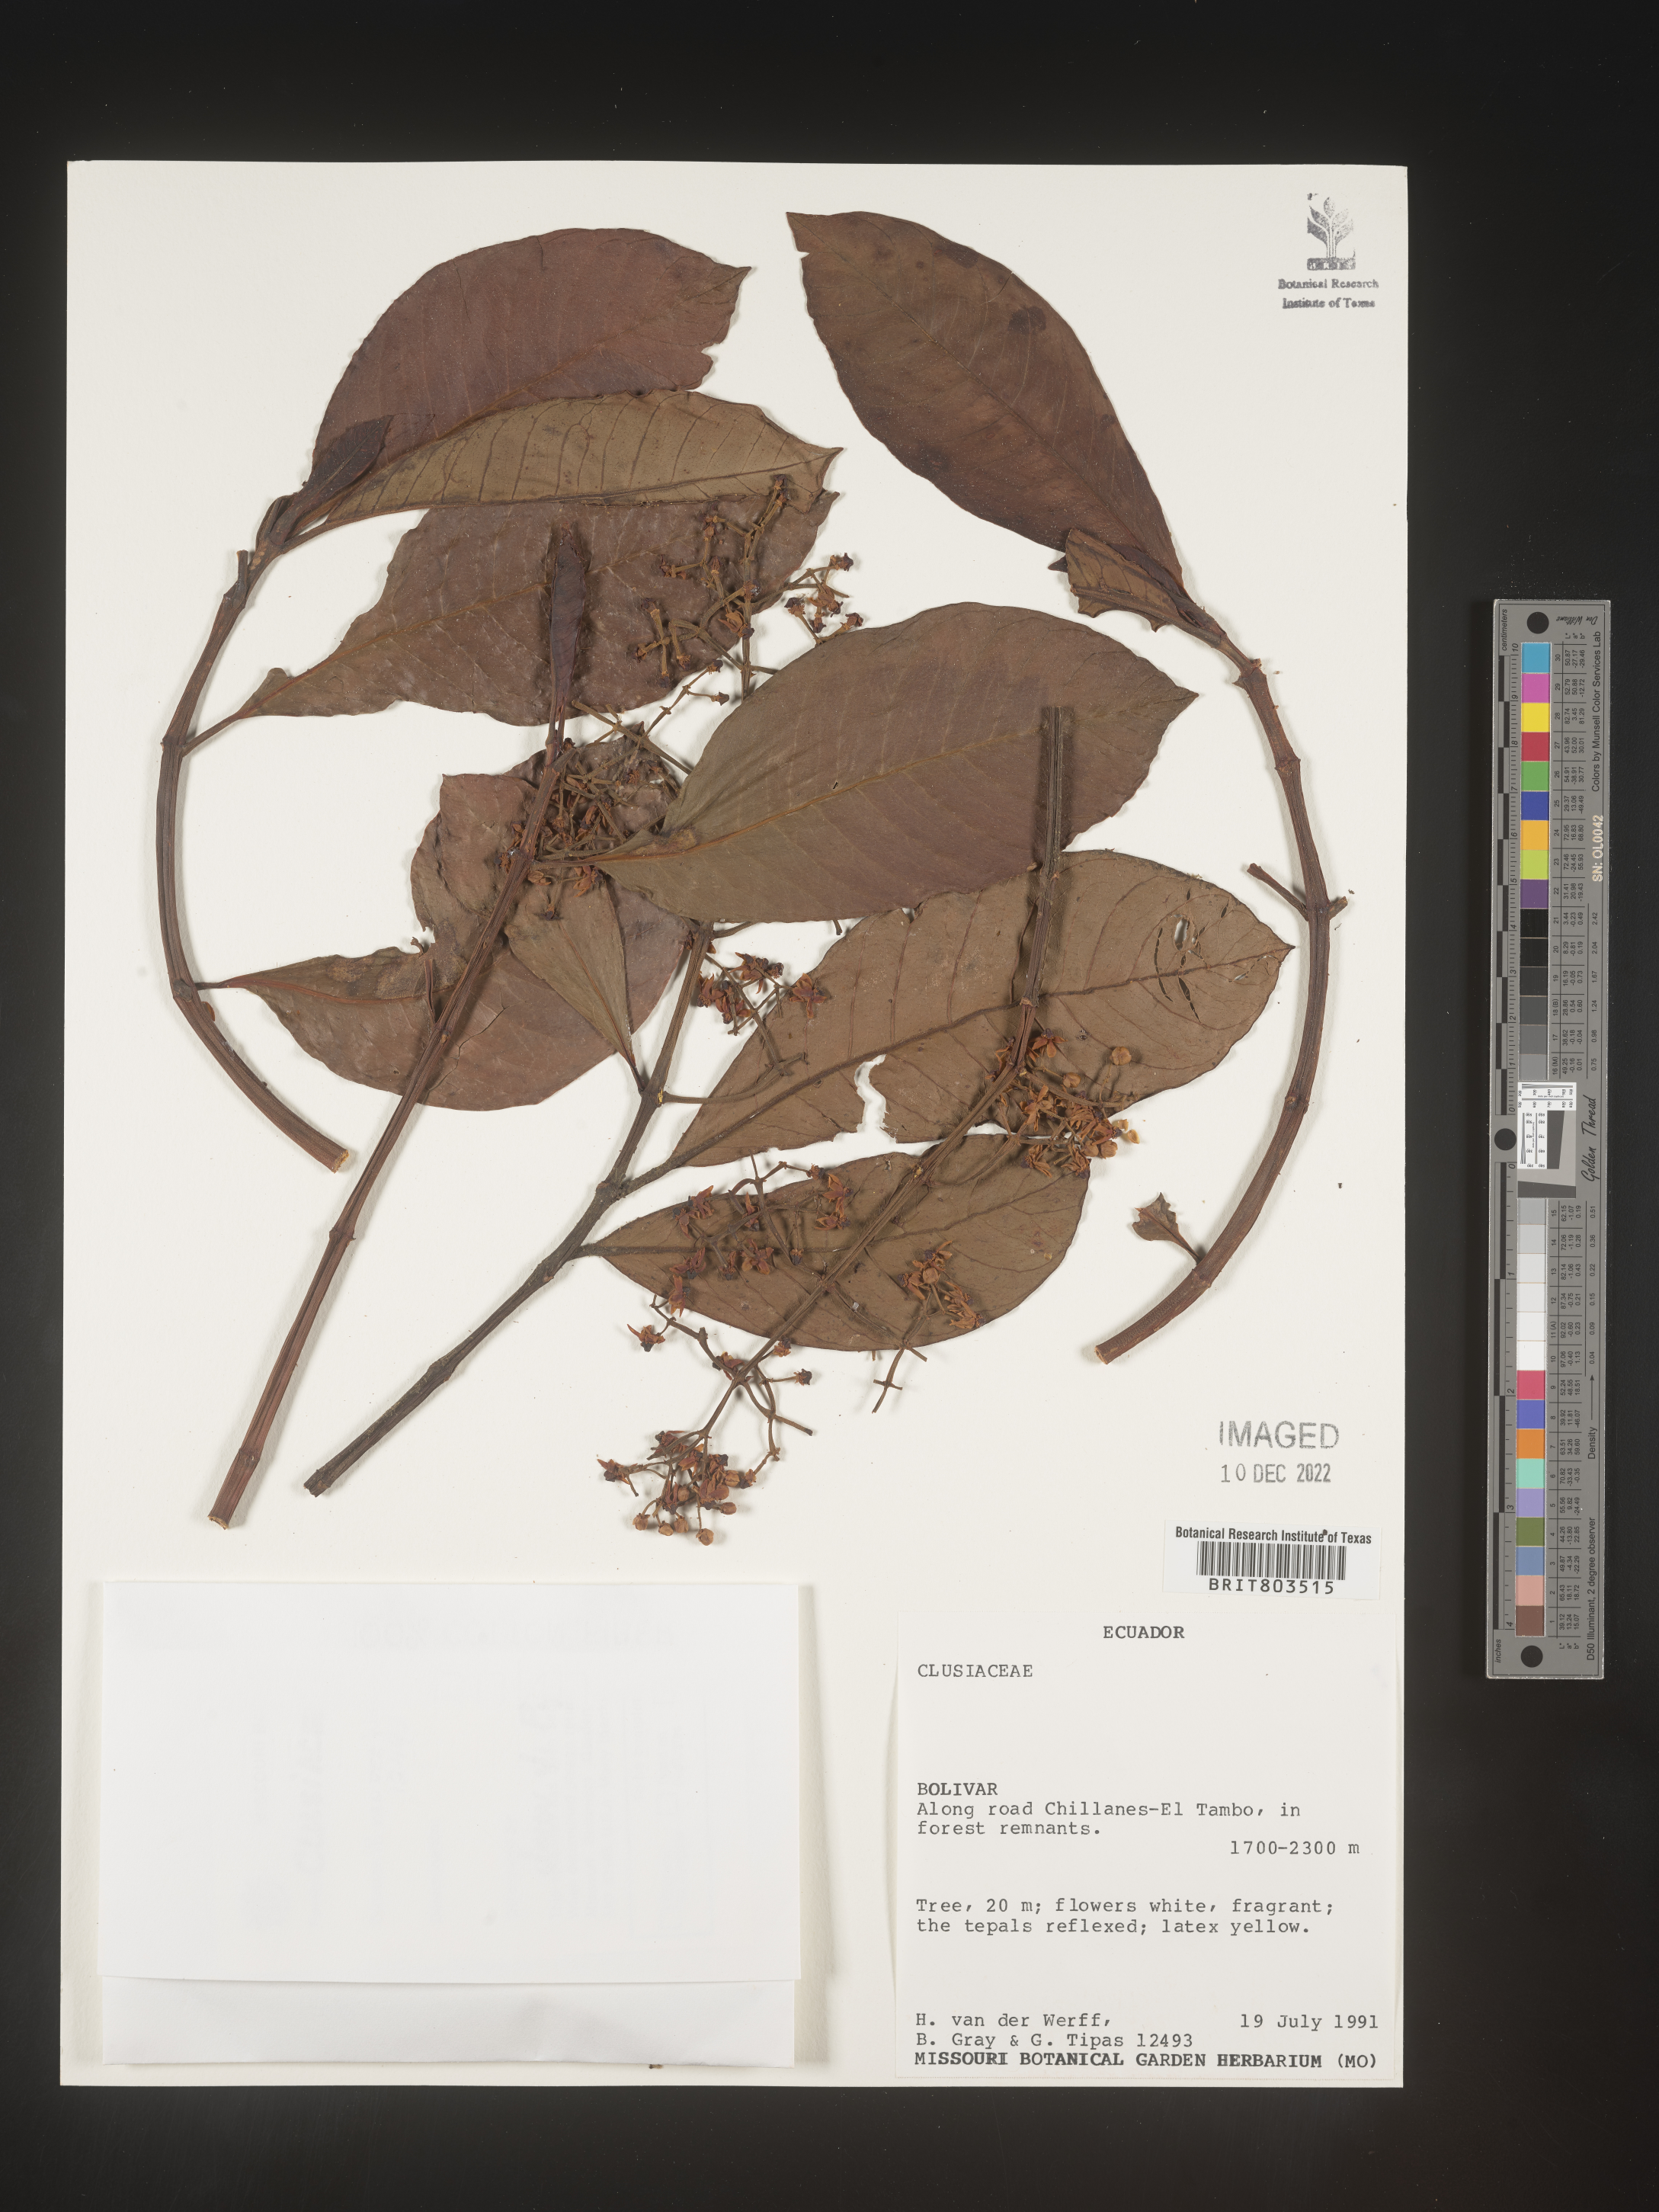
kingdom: Plantae
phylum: Tracheophyta
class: Magnoliopsida
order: Malpighiales
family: Clusiaceae
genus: Tovomita
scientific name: Tovomita
